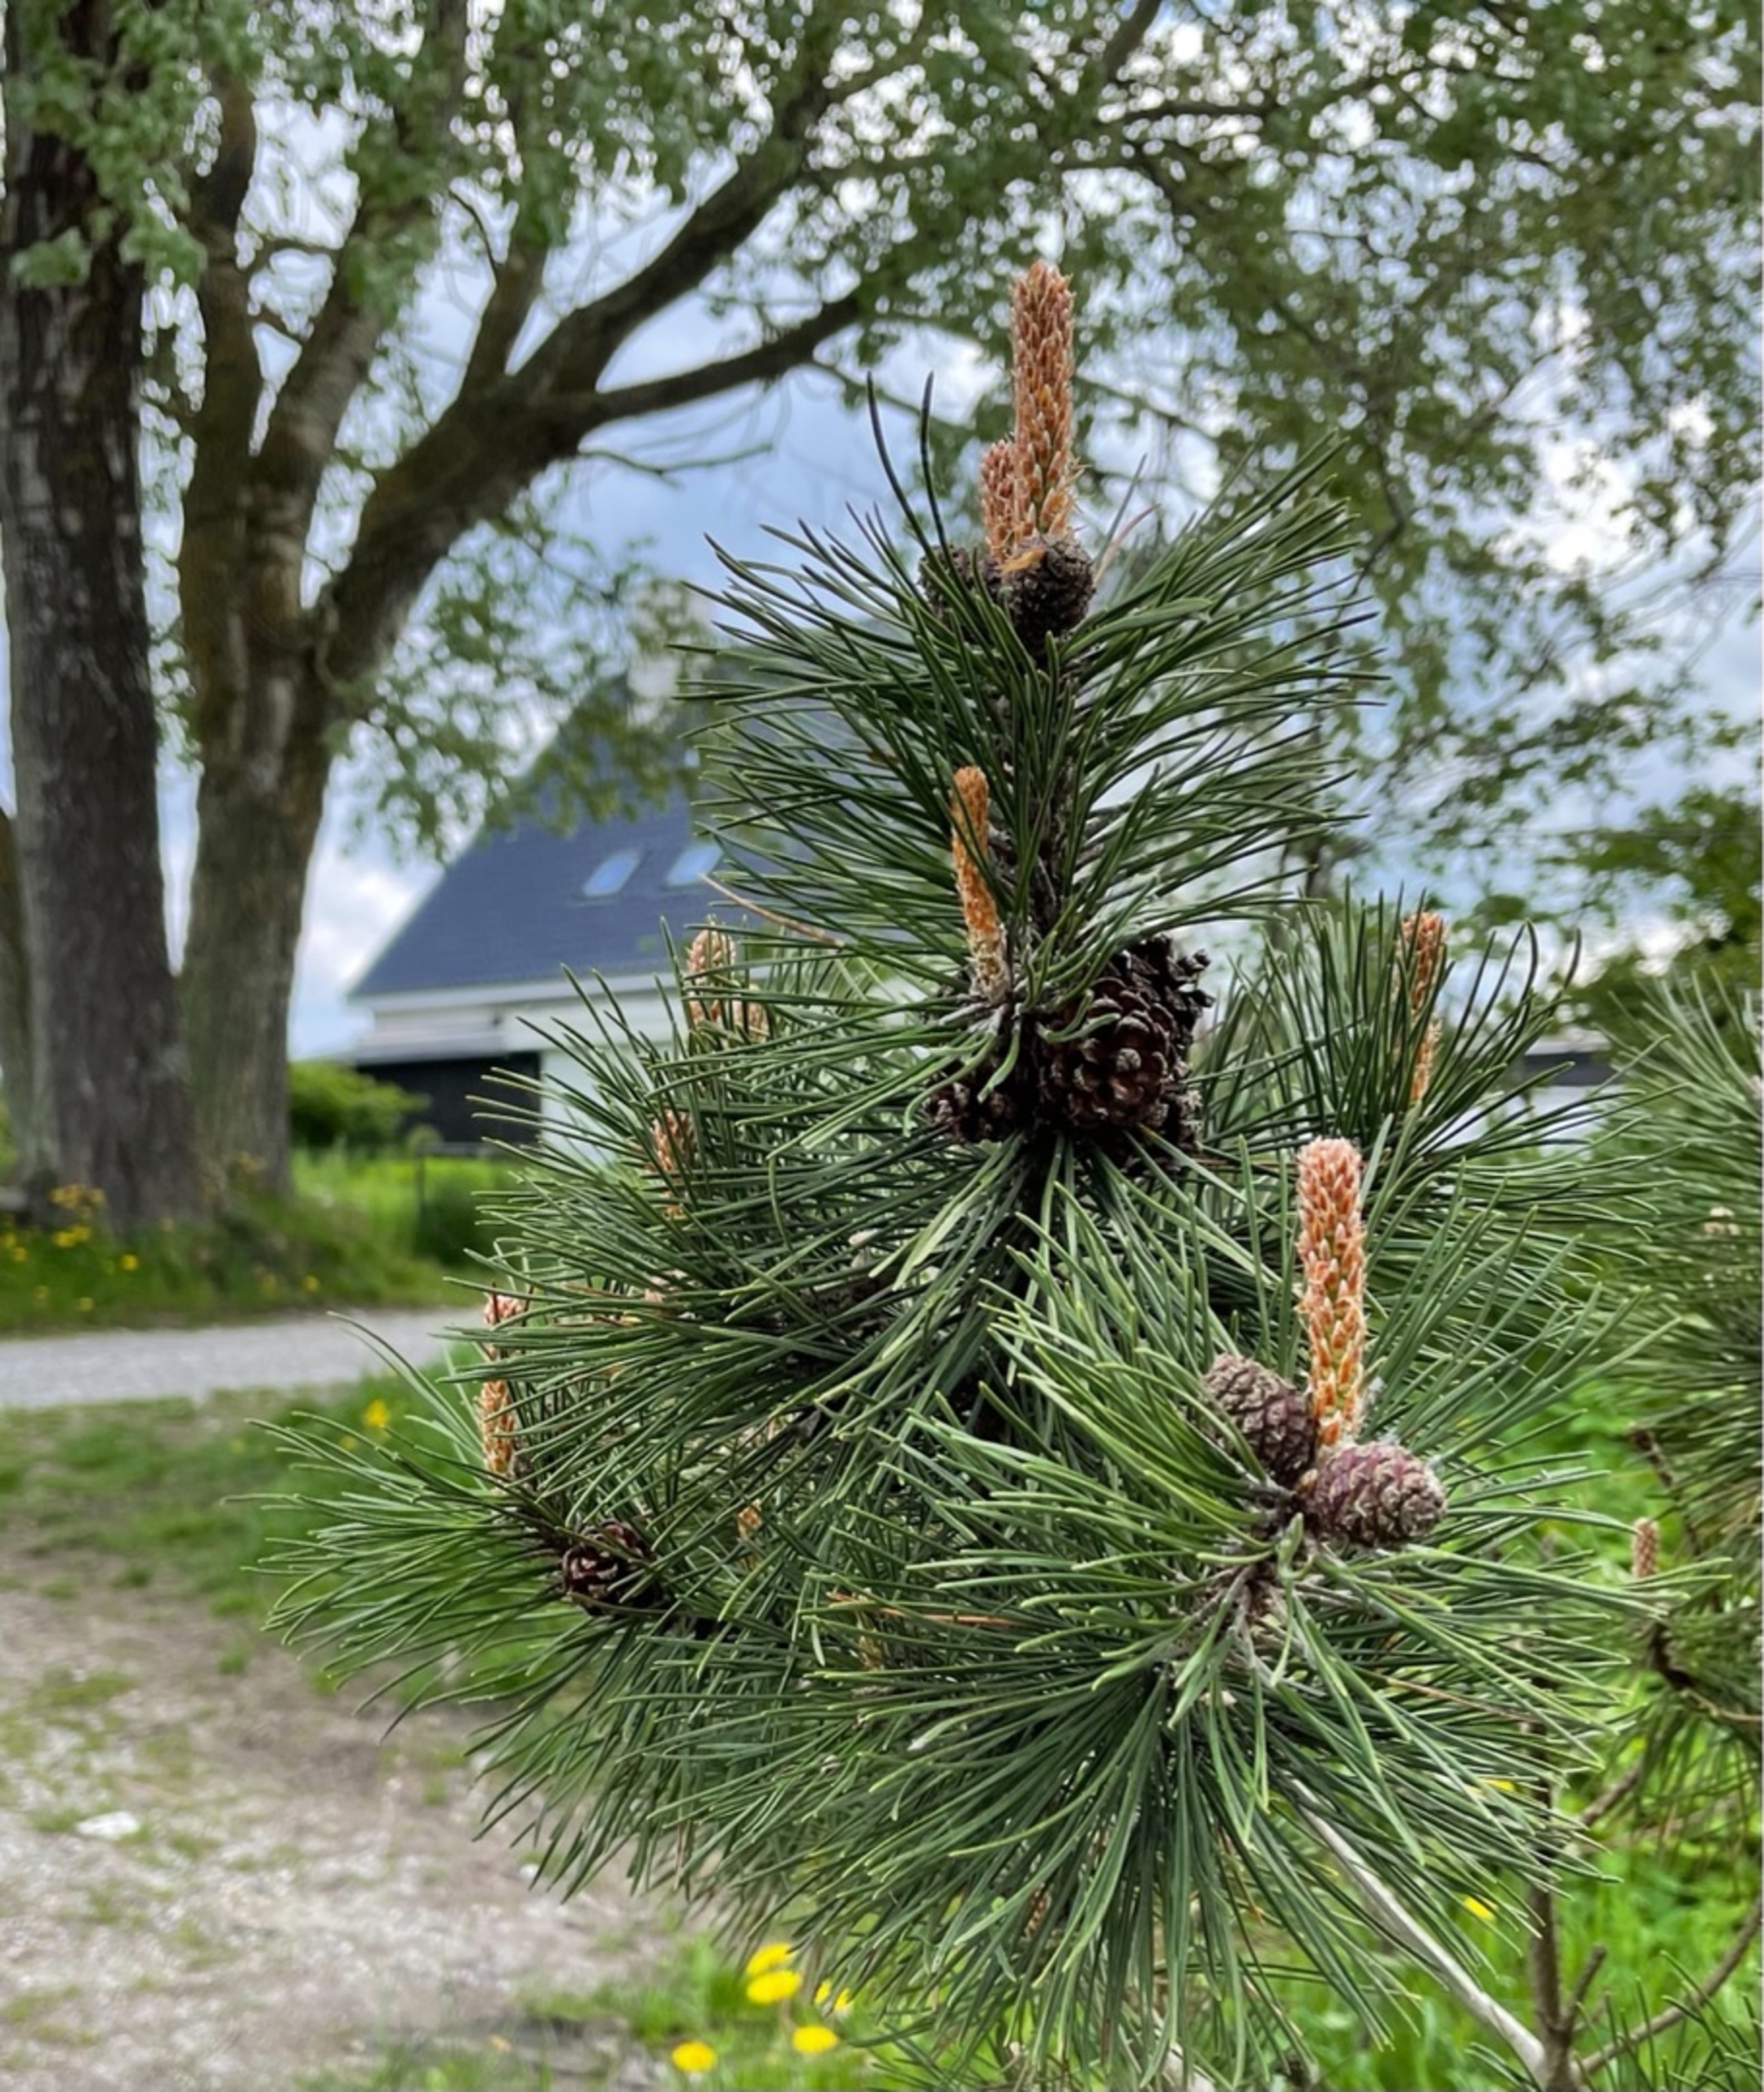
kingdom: Plantae
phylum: Tracheophyta
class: Pinopsida
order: Pinales
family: Pinaceae
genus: Pinus
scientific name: Pinus contorta
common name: Klit-fyr
